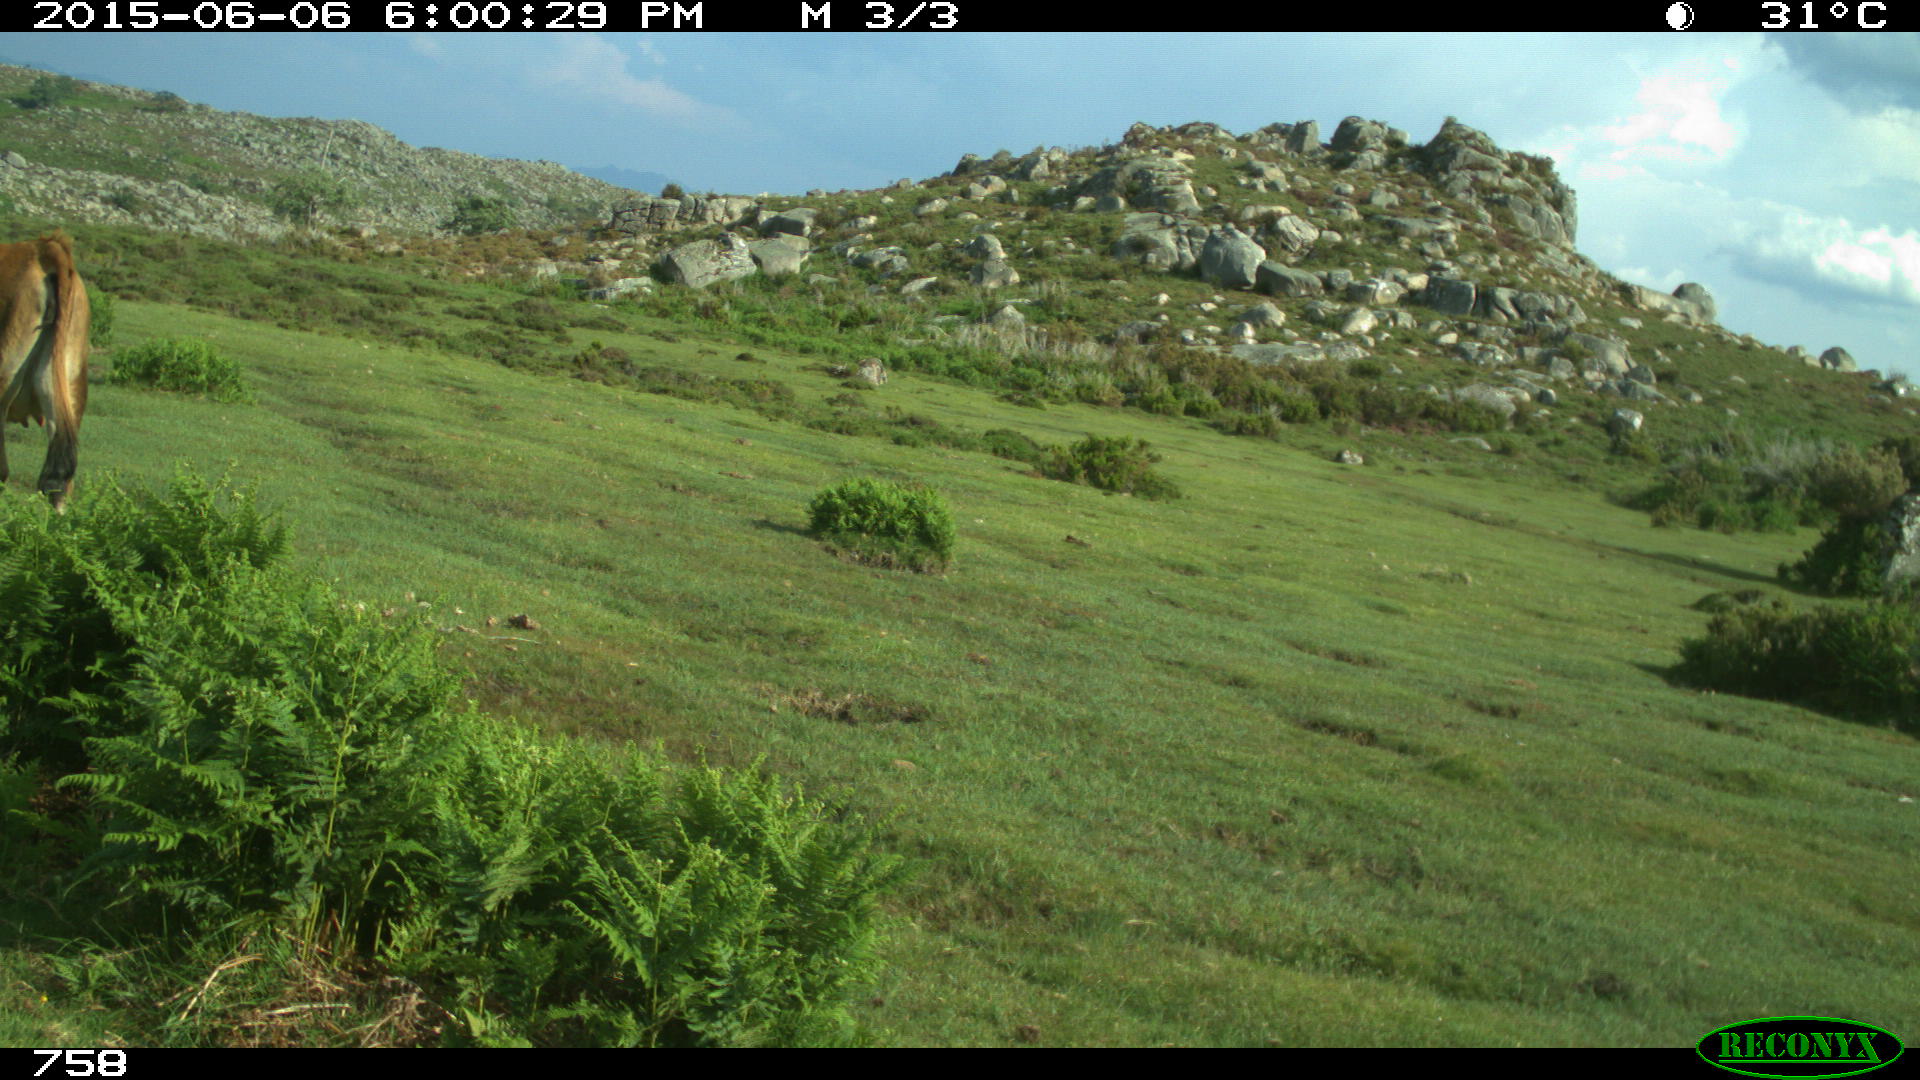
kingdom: Animalia
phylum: Chordata
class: Mammalia
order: Artiodactyla
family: Bovidae
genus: Bos
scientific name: Bos taurus
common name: Domesticated cattle
